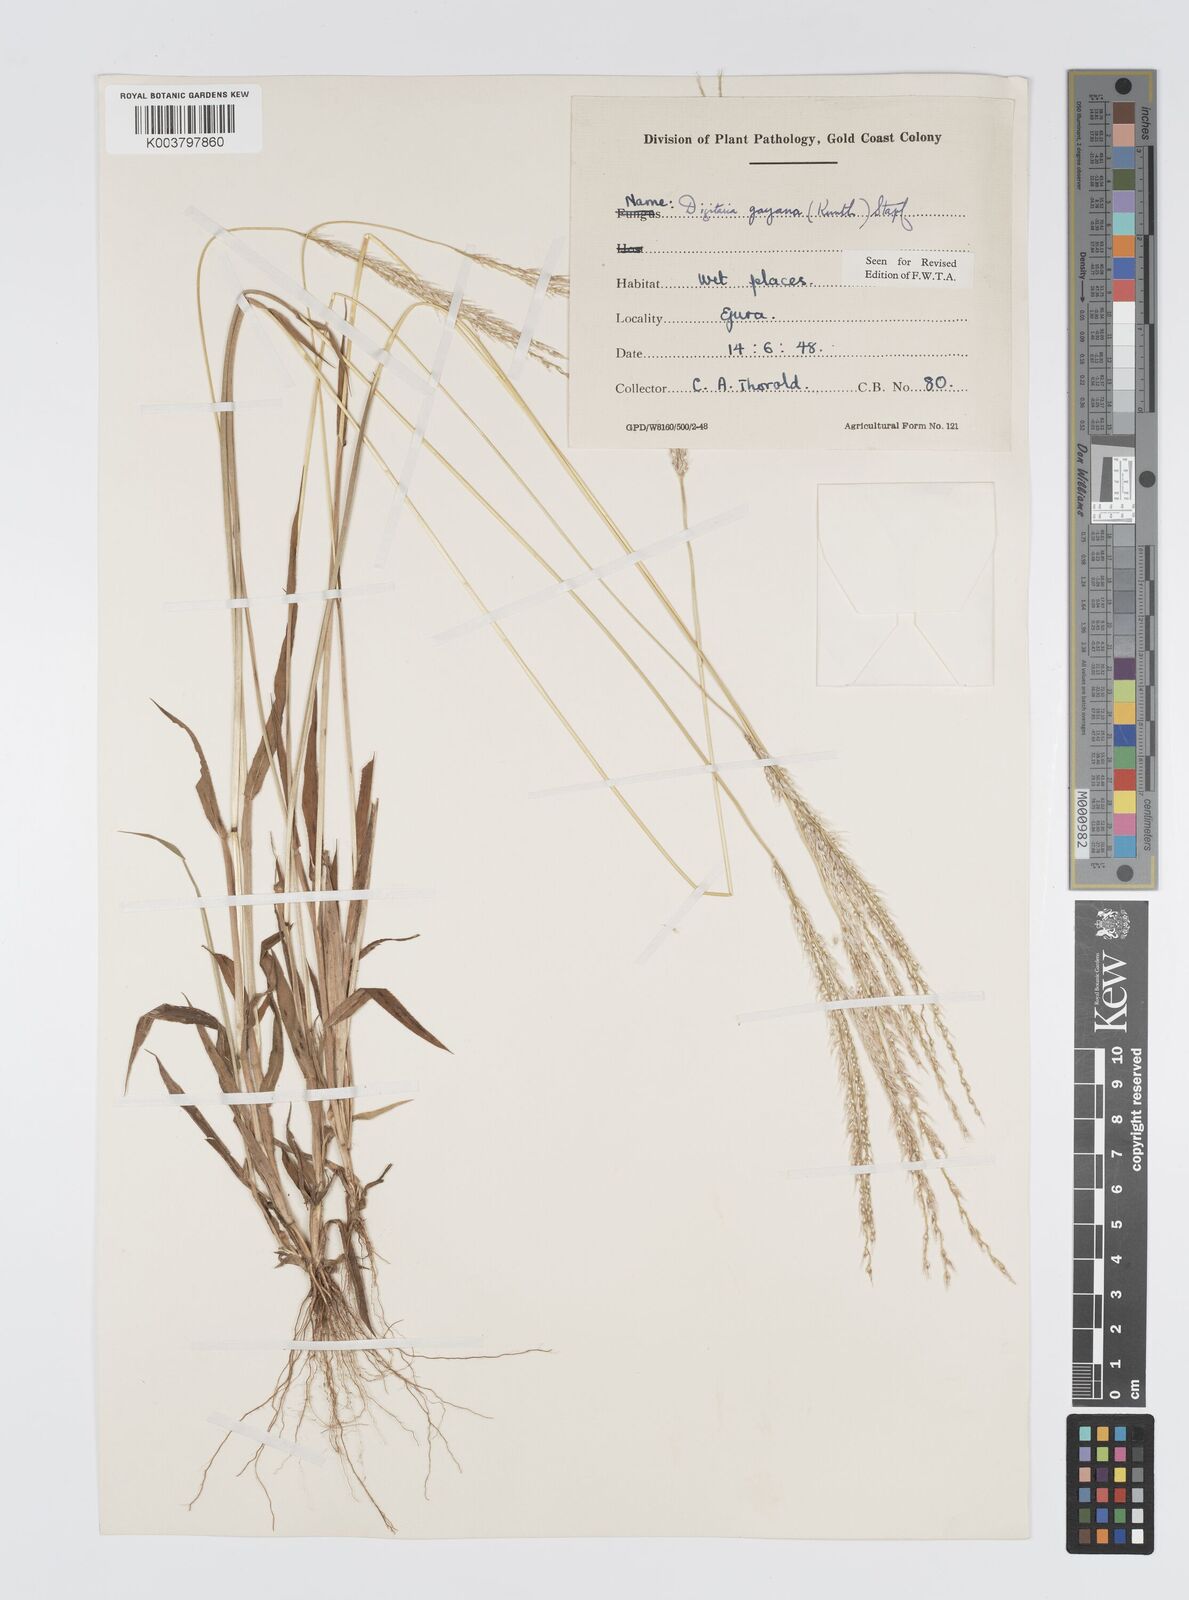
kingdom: Plantae
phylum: Tracheophyta
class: Liliopsida
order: Poales
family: Poaceae
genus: Digitaria
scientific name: Digitaria gayana
